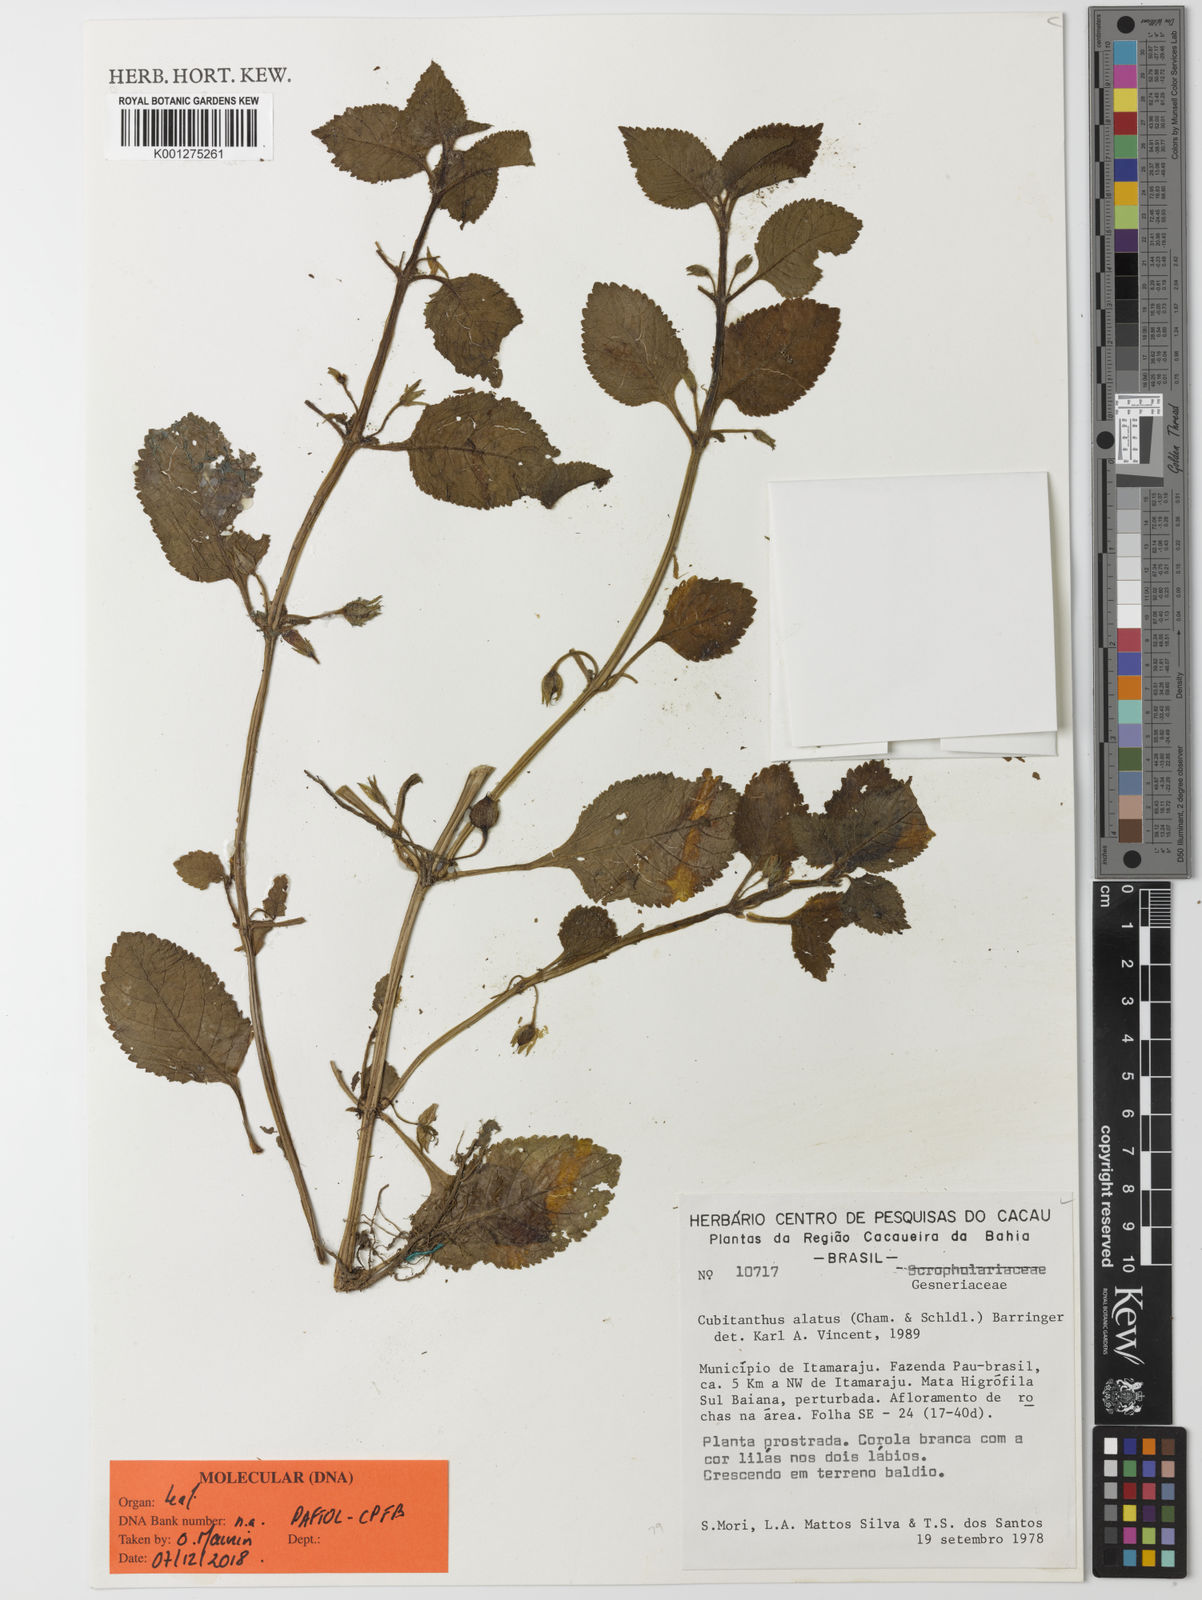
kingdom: Plantae
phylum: Tracheophyta
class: Magnoliopsida
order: Lamiales
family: Gesneriaceae
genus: Cubitanthus
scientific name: Cubitanthus alatus
